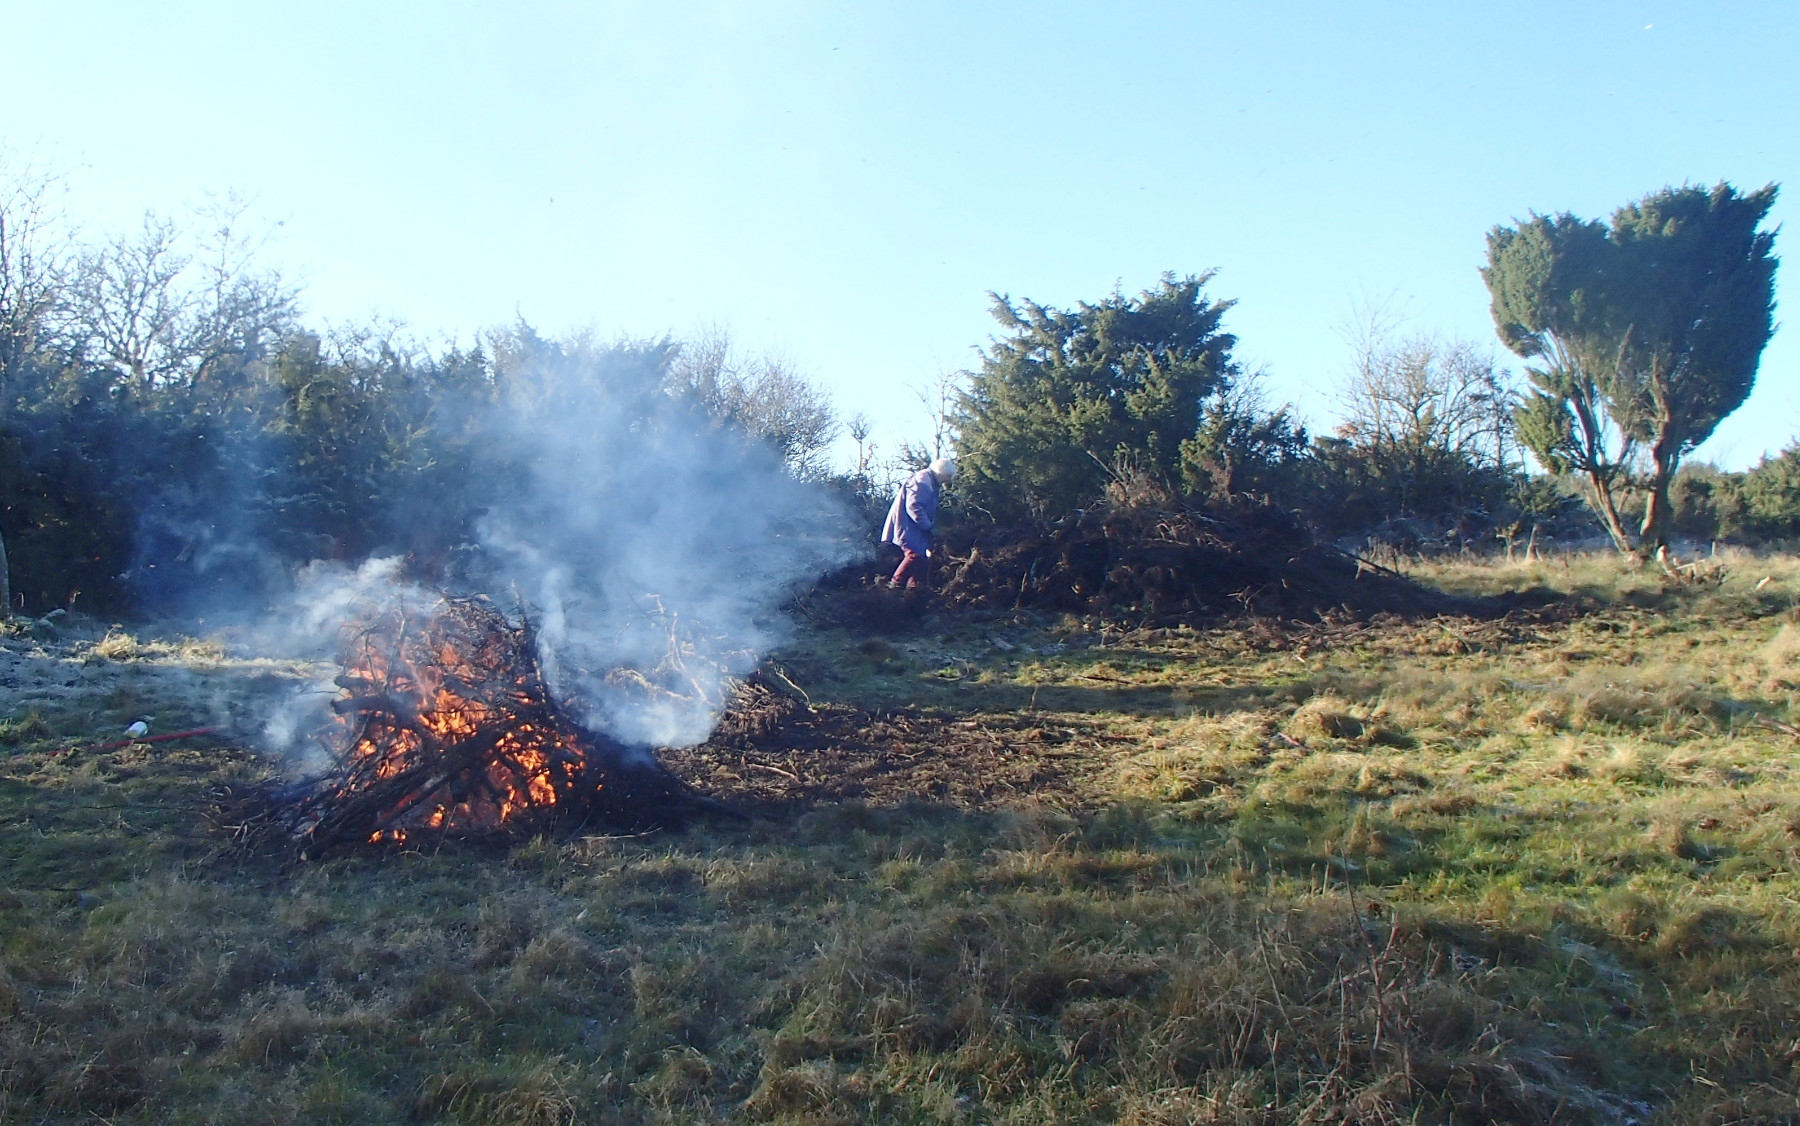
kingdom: Fungi
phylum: Basidiomycota
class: Agaricomycetes
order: Agaricales
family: Mycenaceae
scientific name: Mycenaceae
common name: huesvampfamilien
